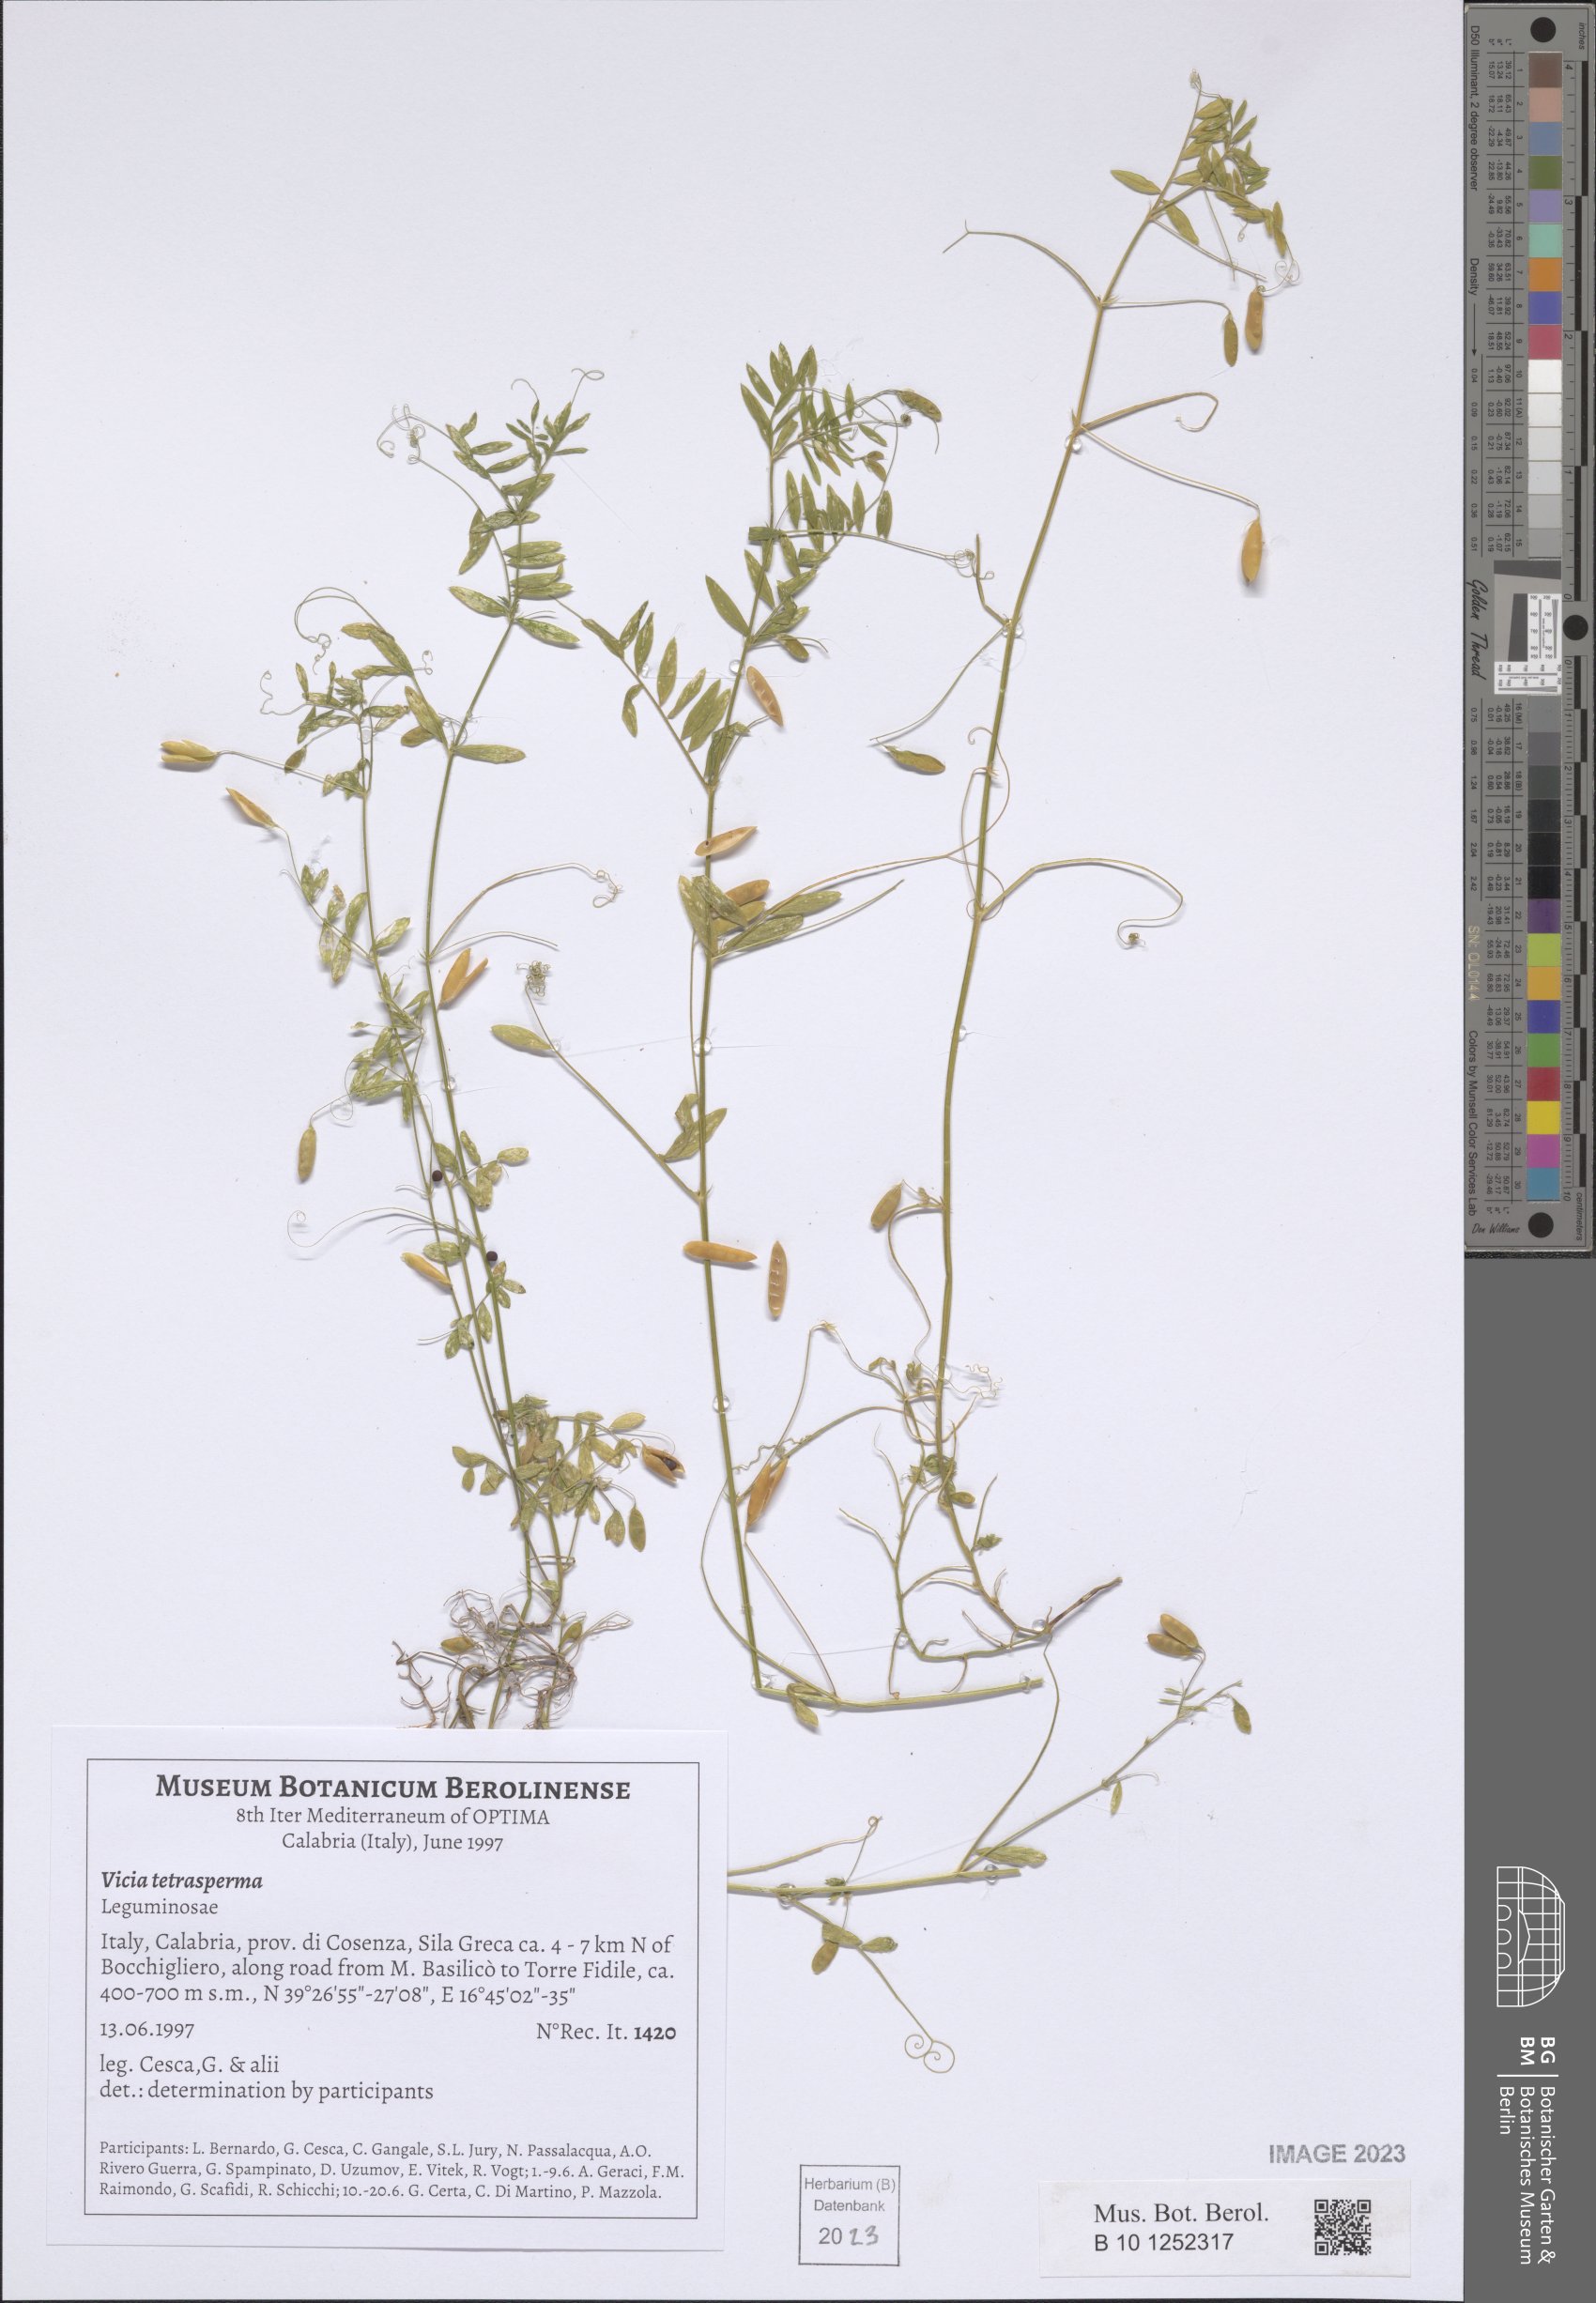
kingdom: Plantae
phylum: Tracheophyta
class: Magnoliopsida
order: Fabales
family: Fabaceae
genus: Vicia
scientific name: Vicia tetrasperma
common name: Smooth tare
